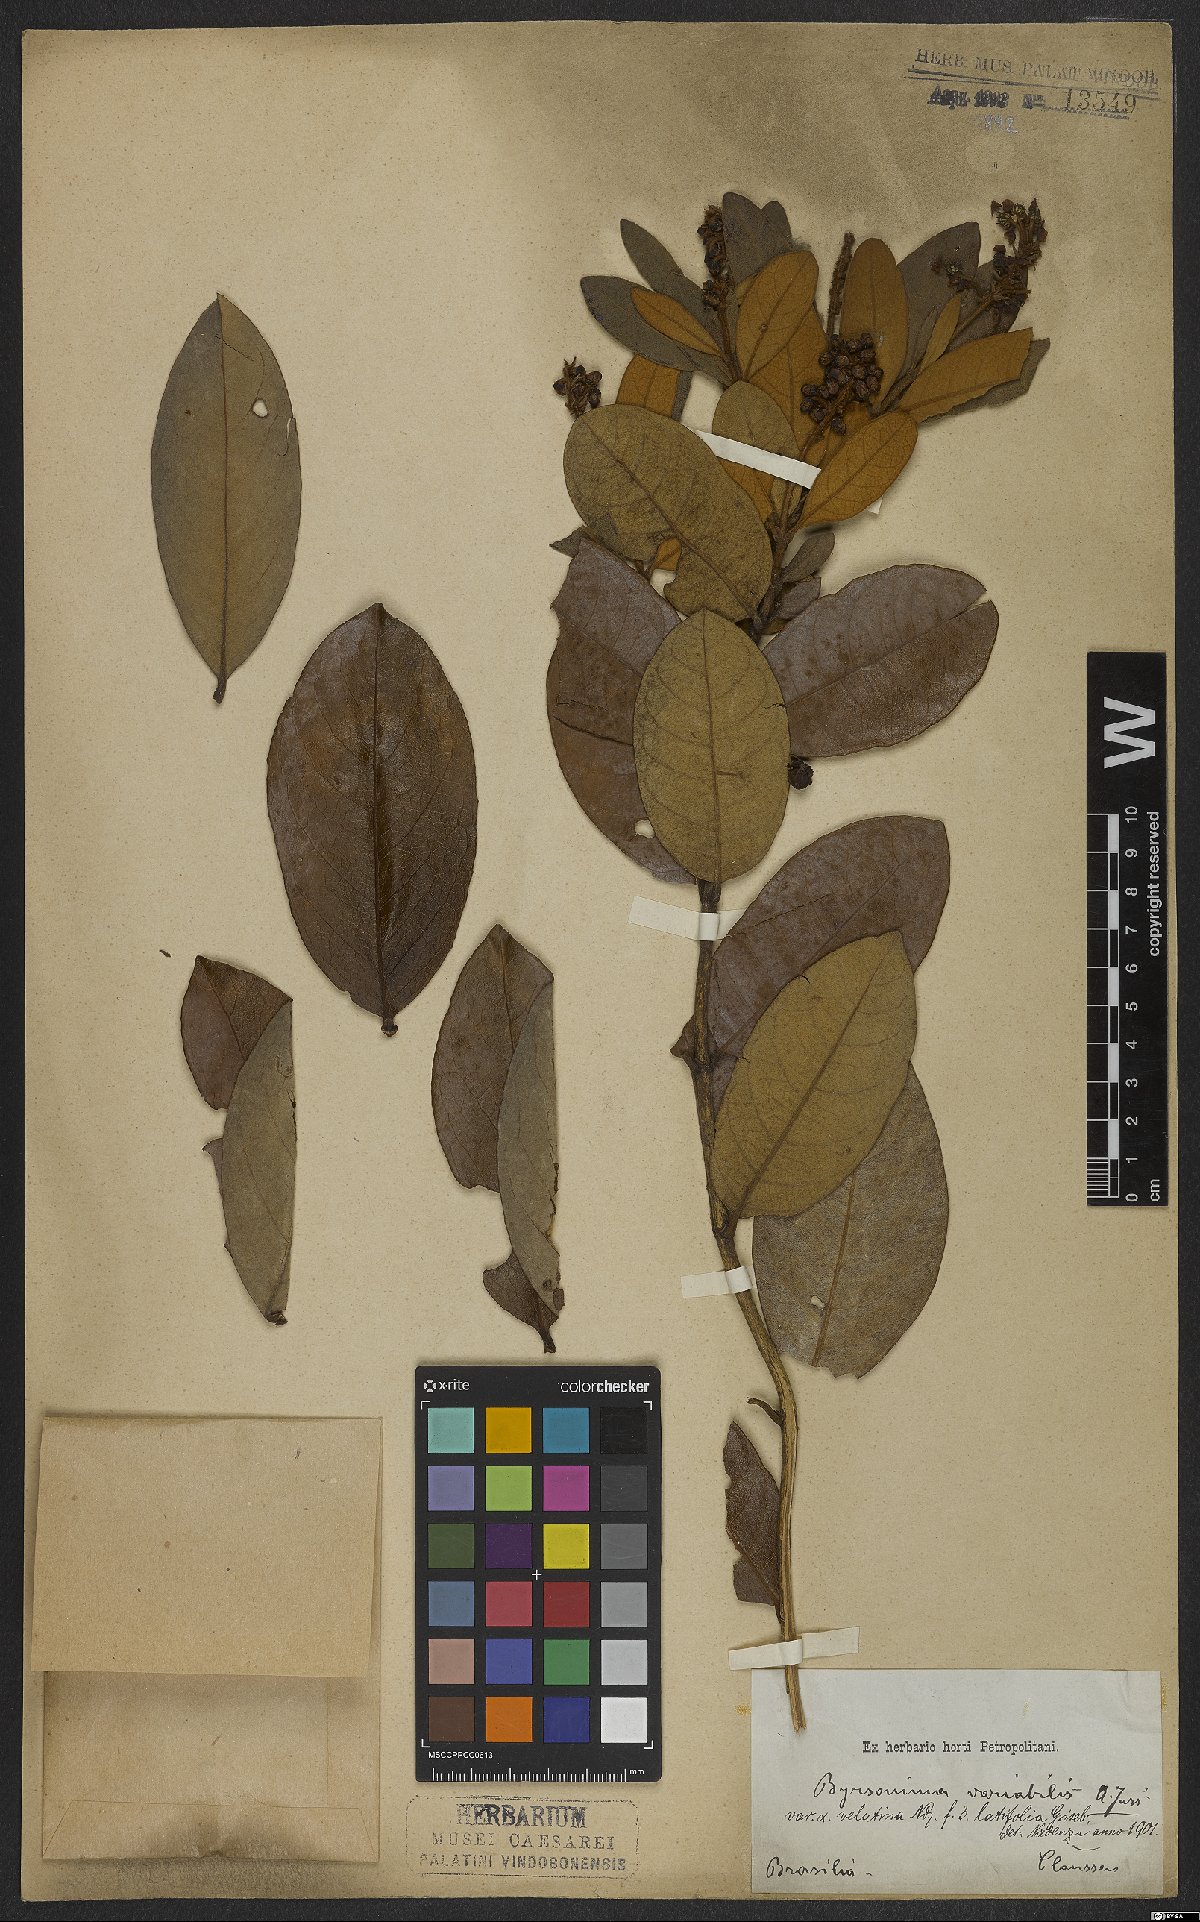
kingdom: Plantae
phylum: Tracheophyta
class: Magnoliopsida
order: Malpighiales
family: Malpighiaceae
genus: Byrsonima
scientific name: Byrsonima variabilis
